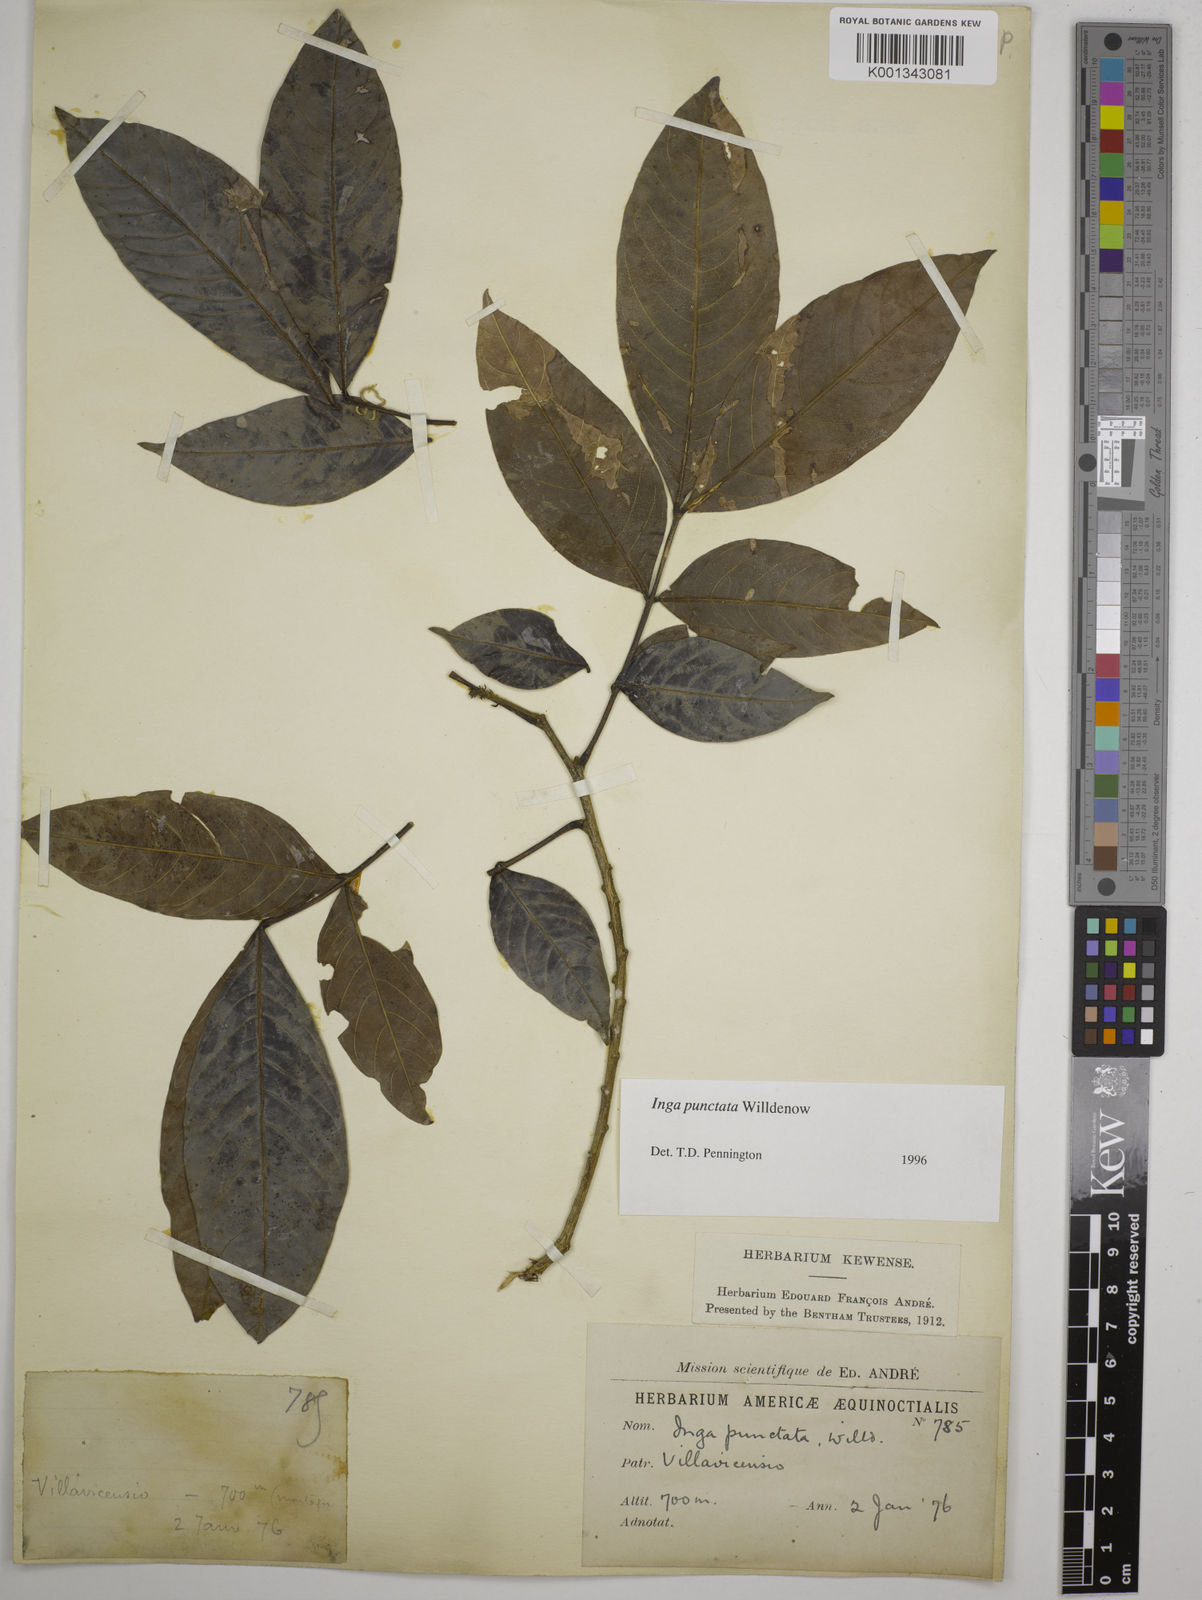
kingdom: Plantae
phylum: Tracheophyta
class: Magnoliopsida
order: Fabales
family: Fabaceae
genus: Inga
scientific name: Inga punctata
